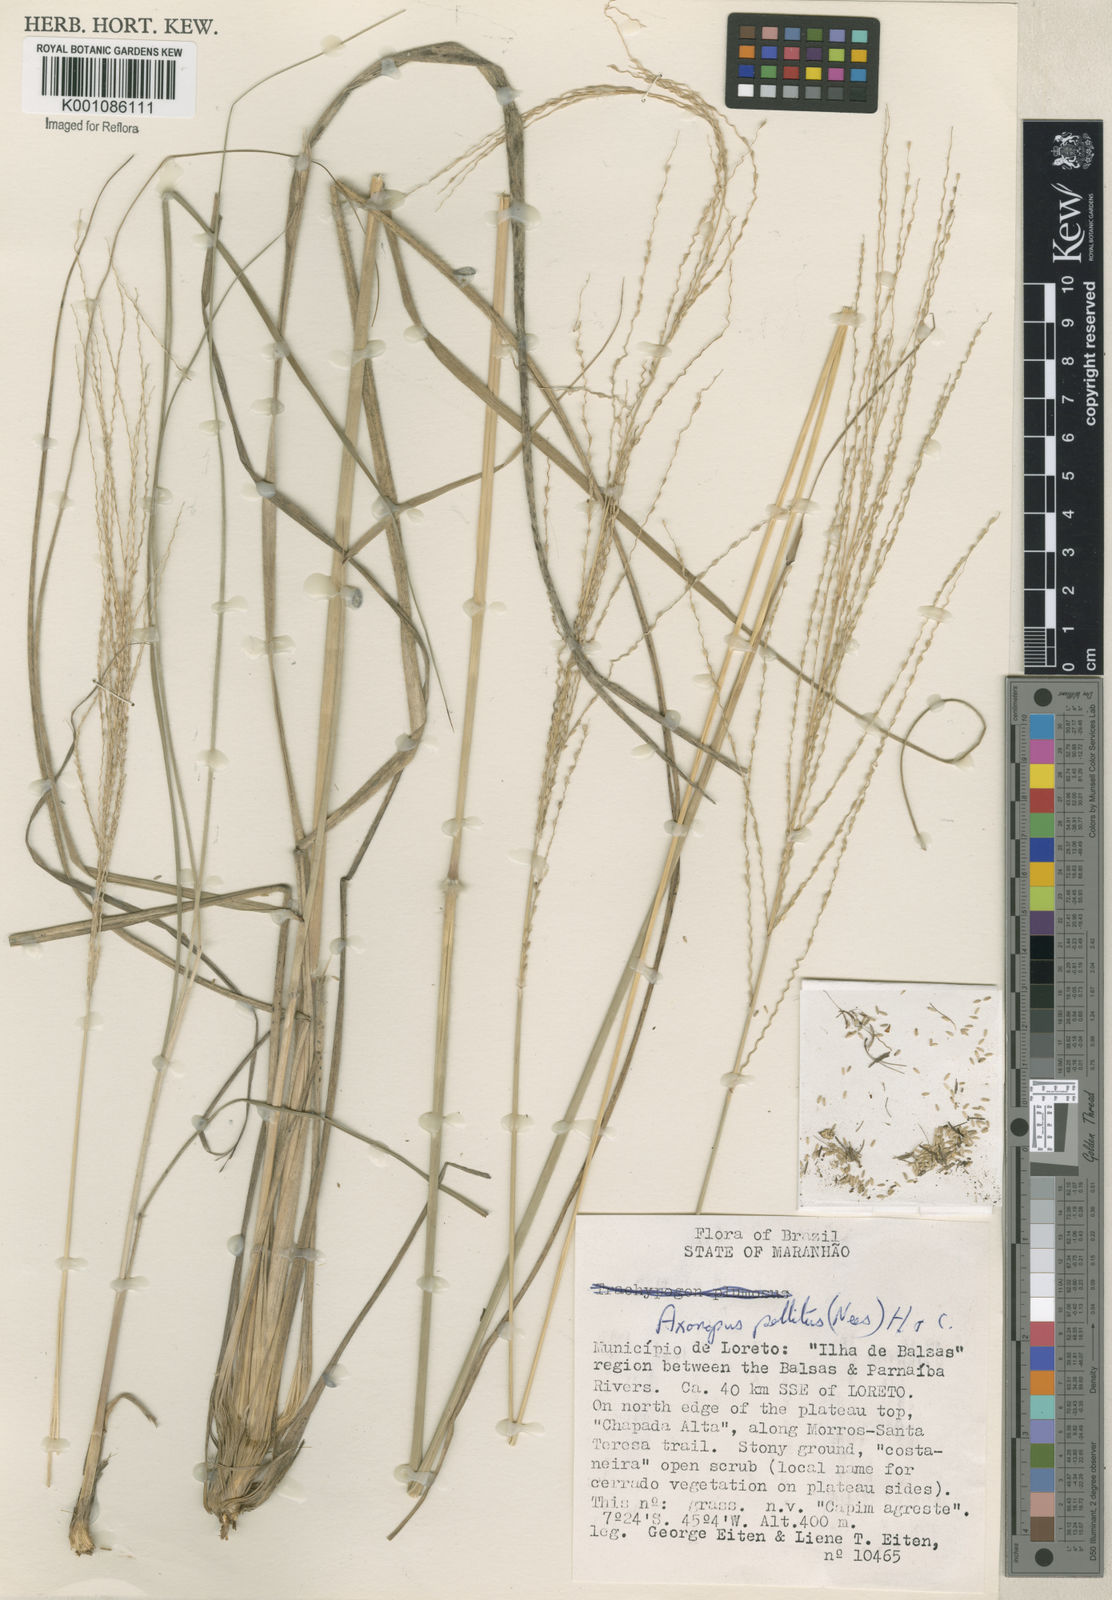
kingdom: Plantae
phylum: Tracheophyta
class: Liliopsida
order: Poales
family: Poaceae
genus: Axonopus
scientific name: Axonopus siccus
